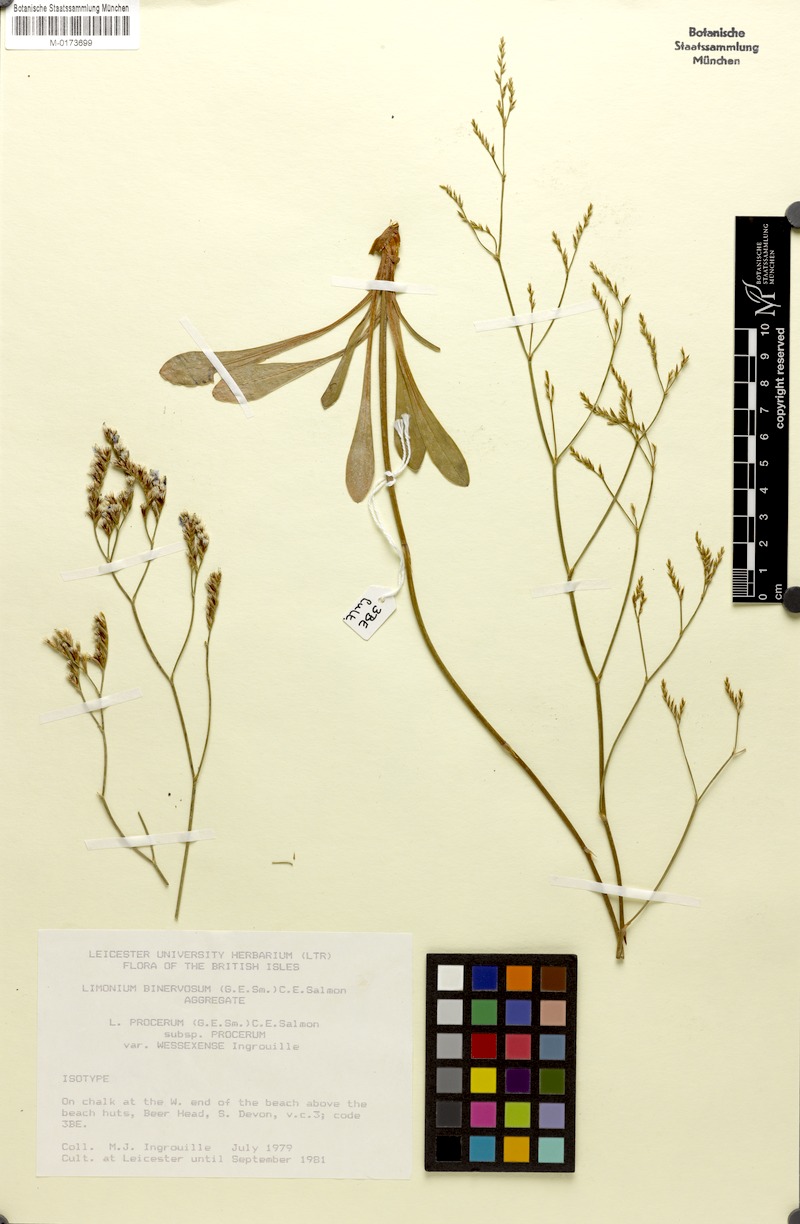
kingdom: Plantae
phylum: Tracheophyta
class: Magnoliopsida
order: Caryophyllales
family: Plumbaginaceae
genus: Limonium
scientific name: Limonium procerum
